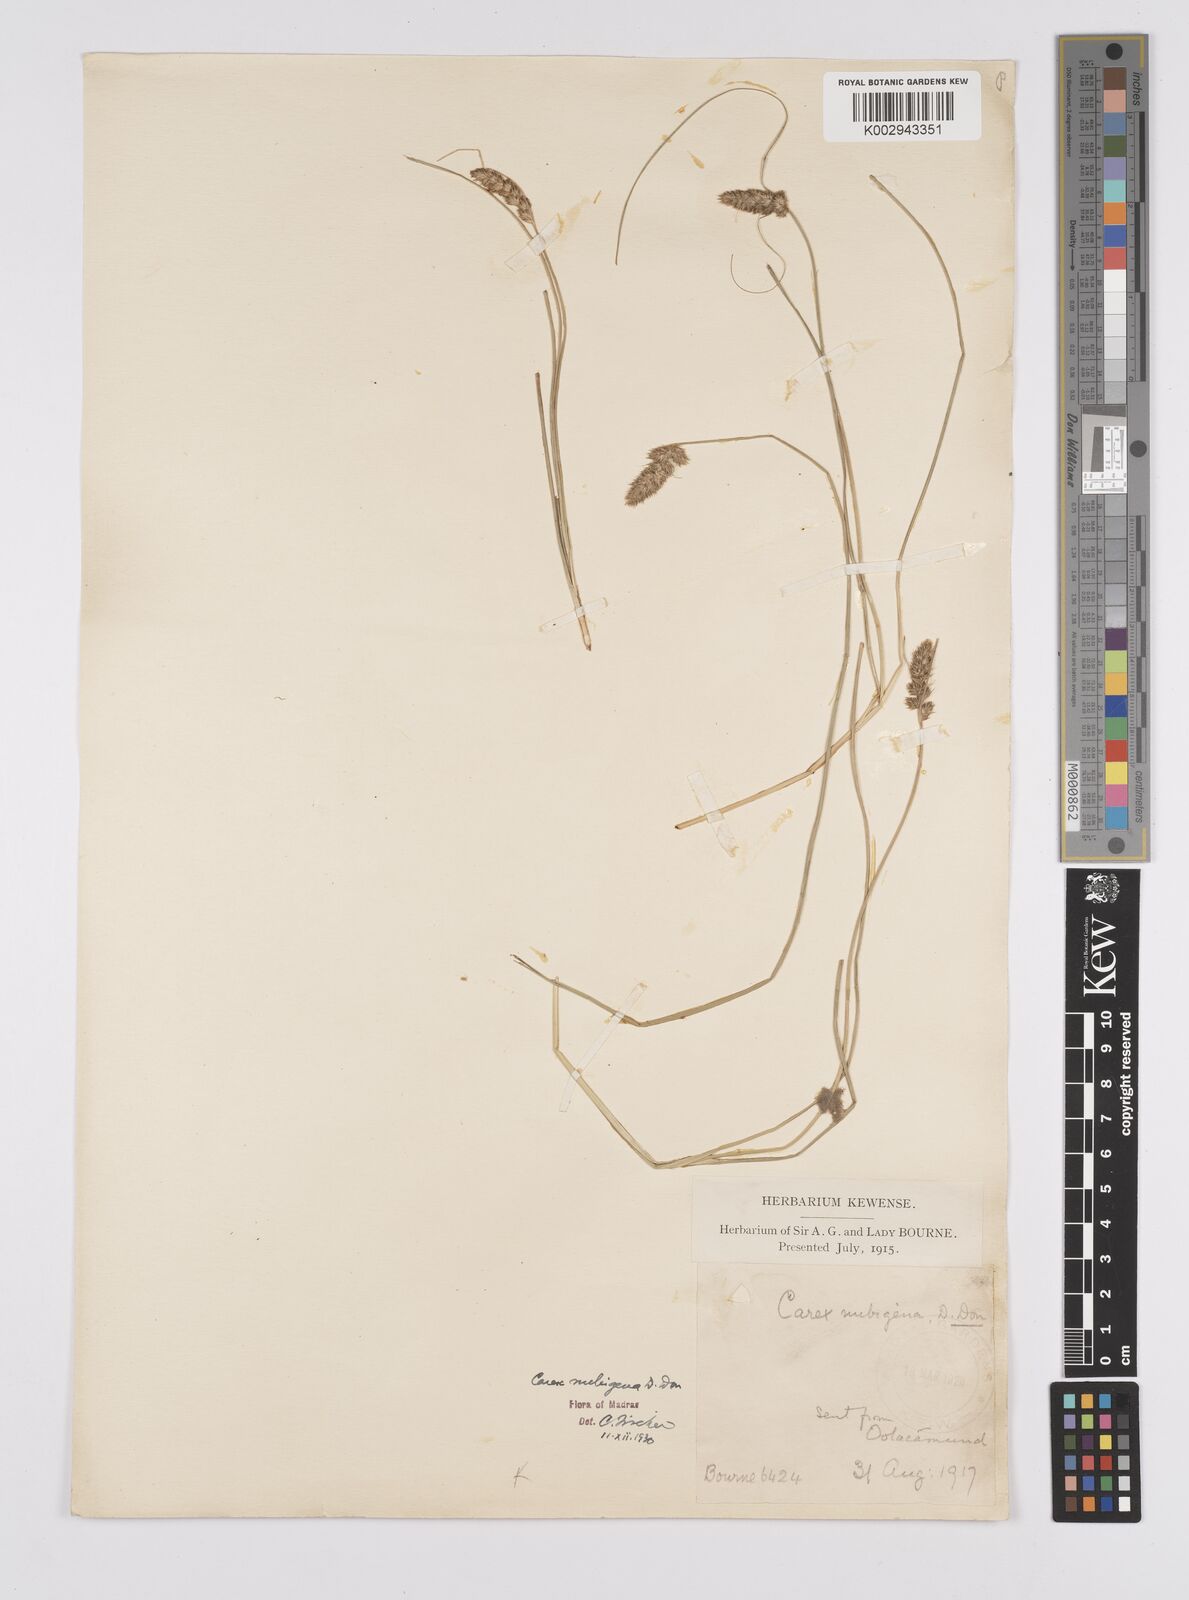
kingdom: Plantae
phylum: Tracheophyta
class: Liliopsida
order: Poales
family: Cyperaceae
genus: Carex
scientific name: Carex nubigena
